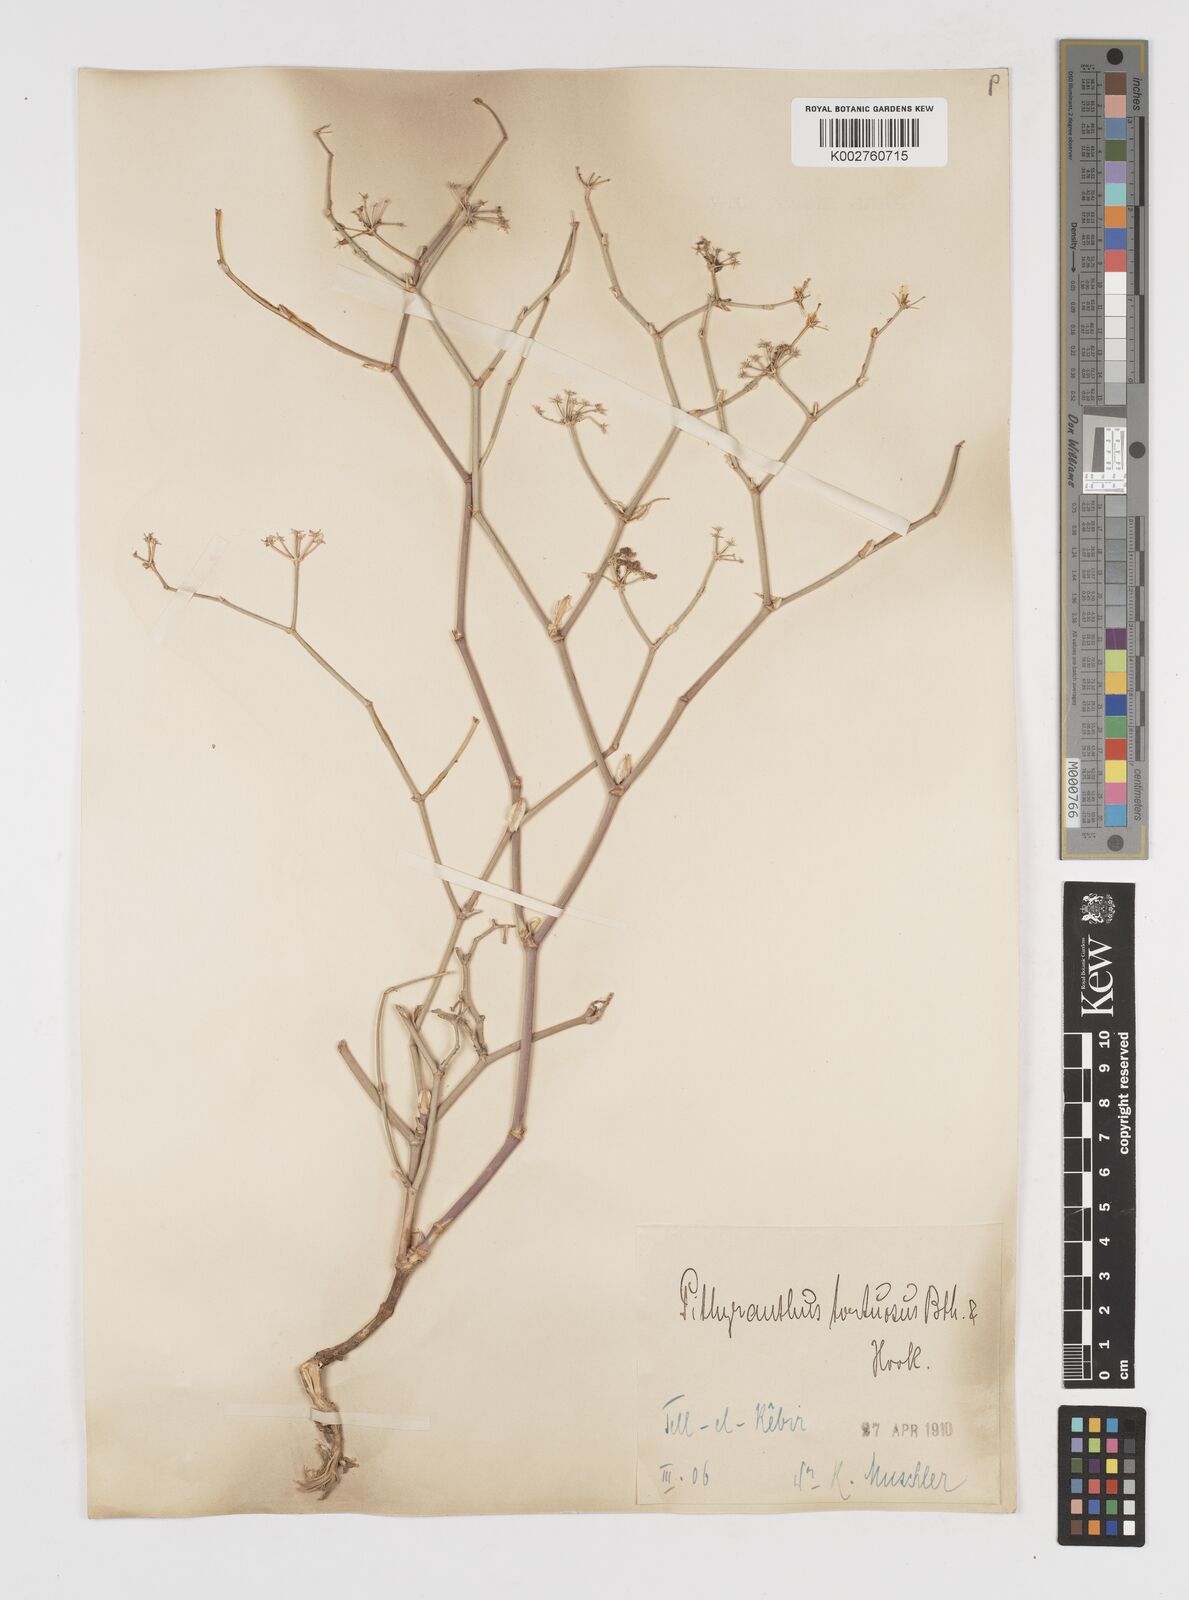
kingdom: Plantae
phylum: Tracheophyta
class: Magnoliopsida
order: Apiales
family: Apiaceae
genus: Deverra
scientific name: Deverra denudata
